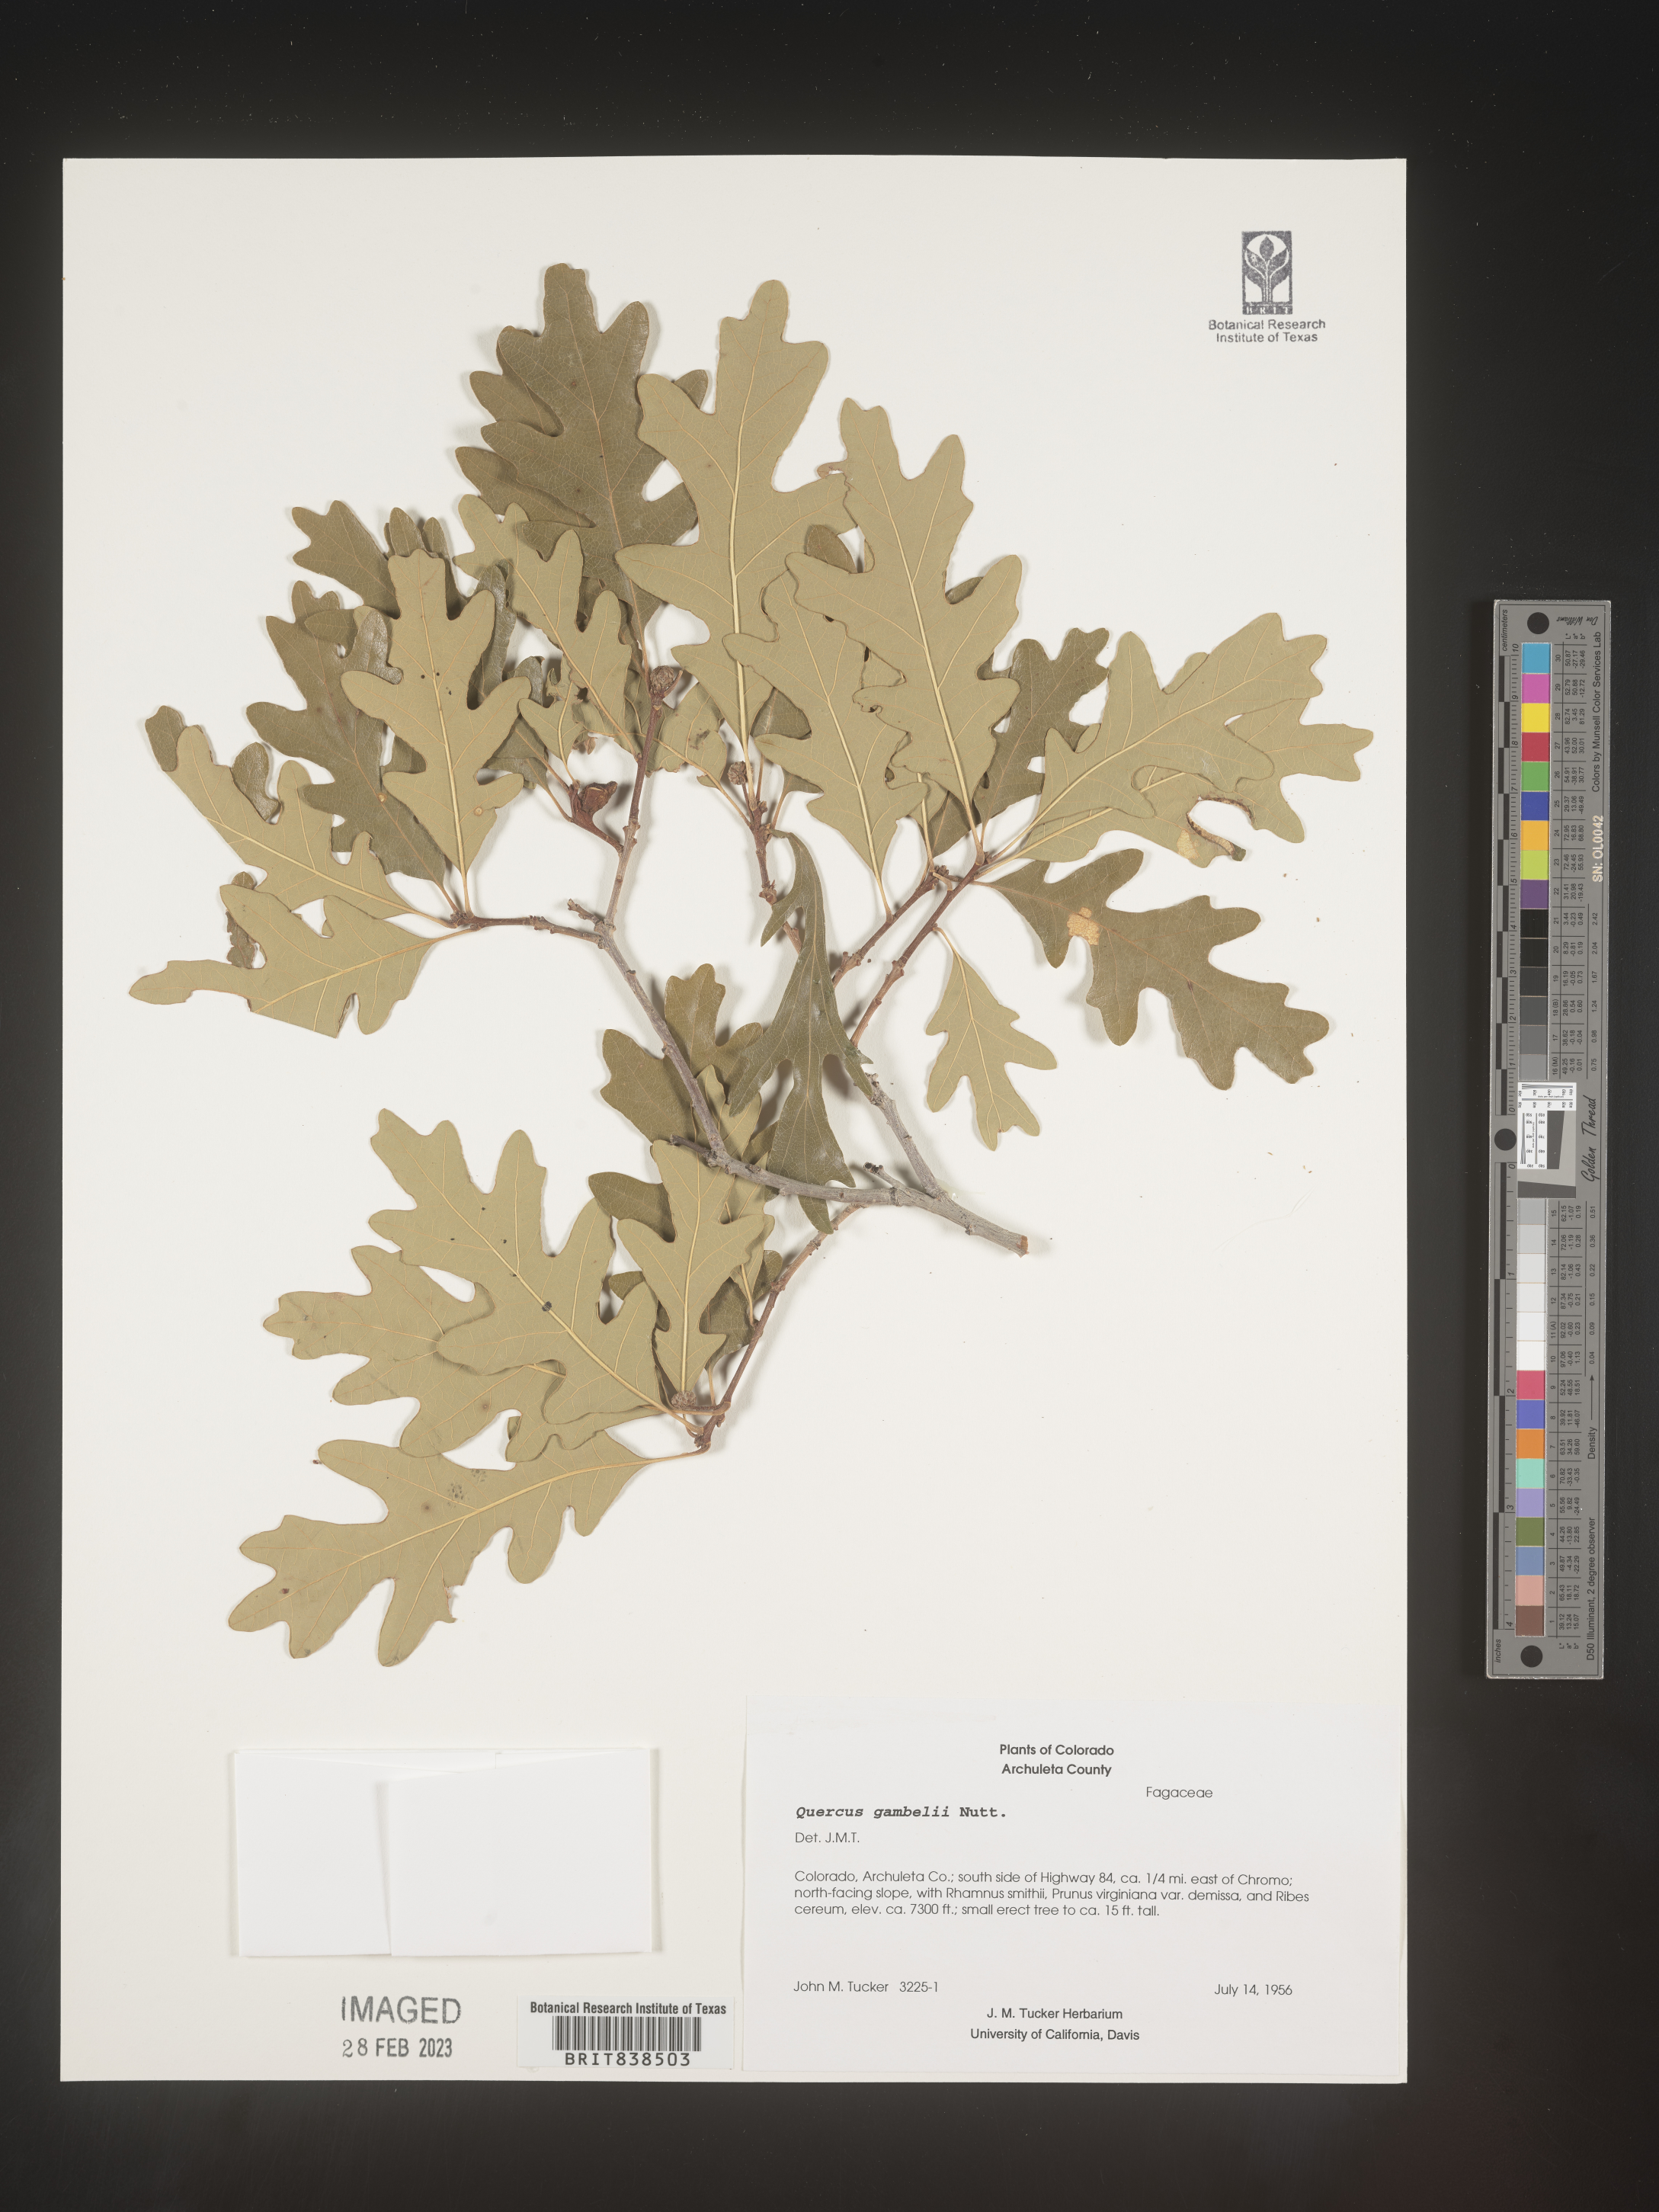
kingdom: Plantae
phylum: Tracheophyta
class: Magnoliopsida
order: Fagales
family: Fagaceae
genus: Quercus
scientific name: Quercus gambelii
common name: Gambel oak
